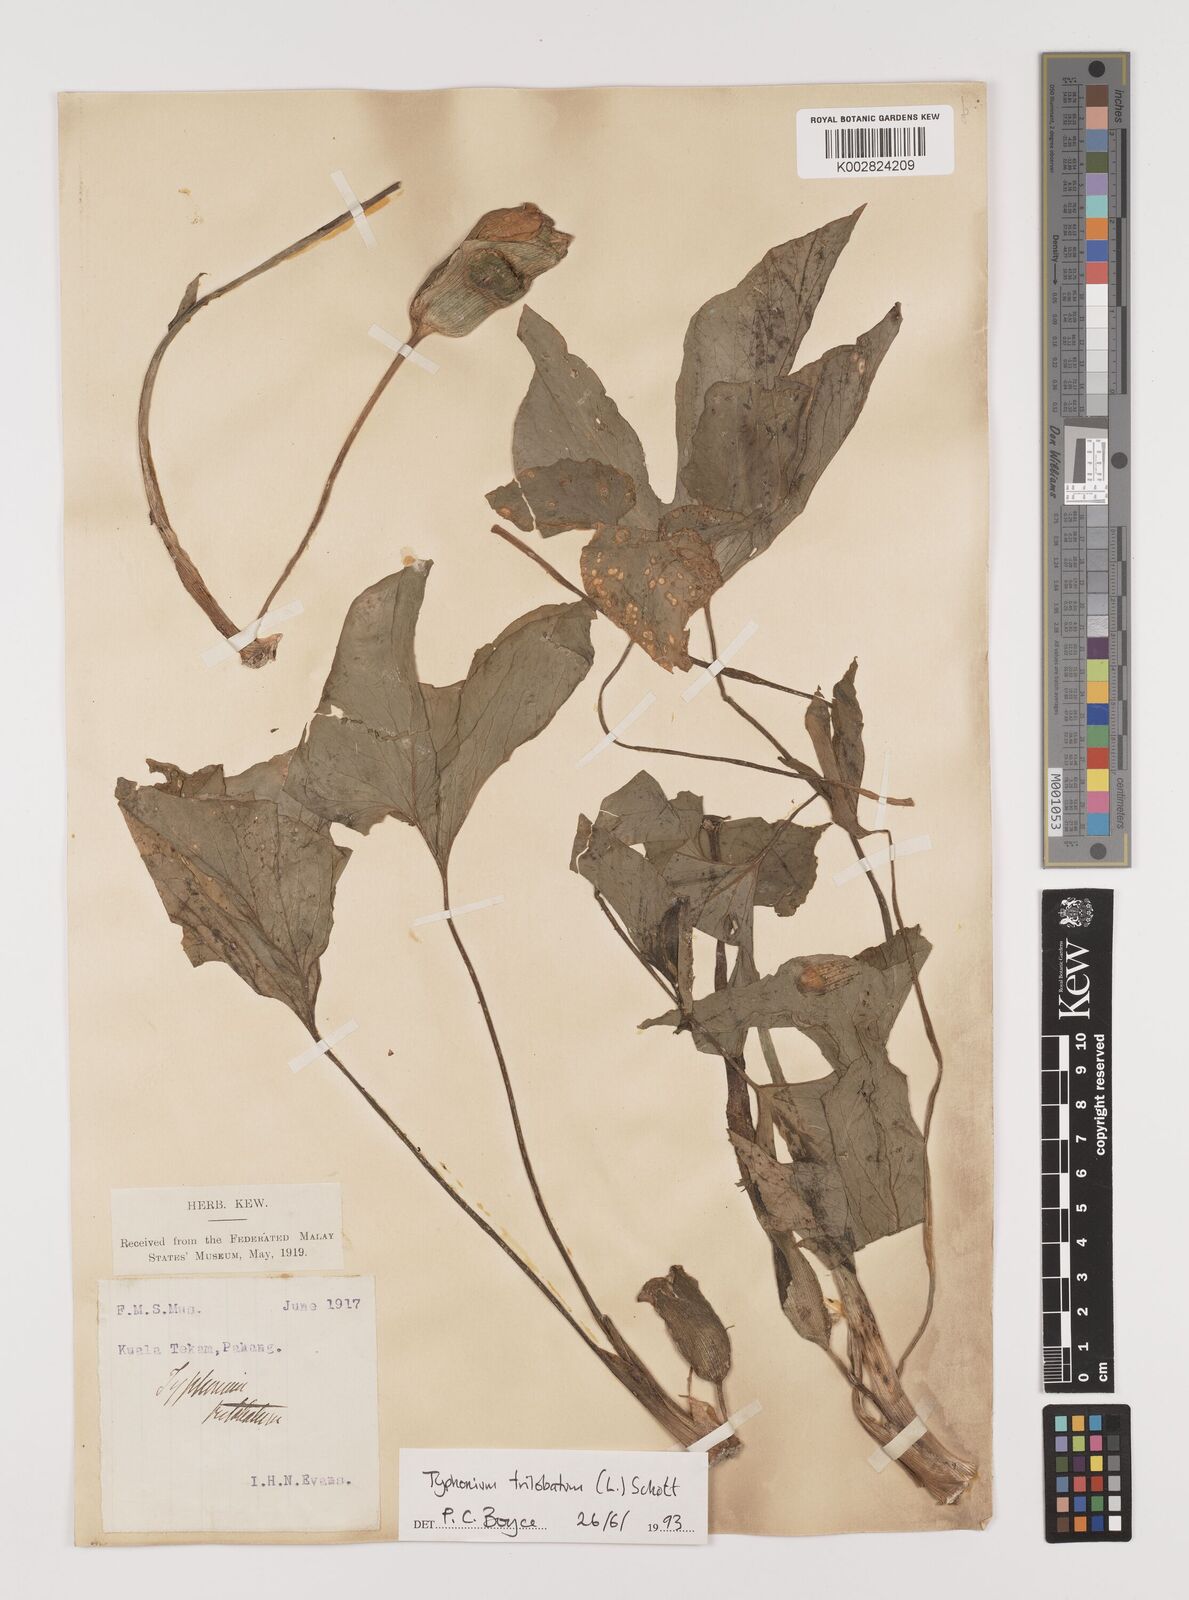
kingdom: Plantae
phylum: Tracheophyta
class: Liliopsida
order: Alismatales
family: Araceae
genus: Typhonium
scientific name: Typhonium trilobatum
